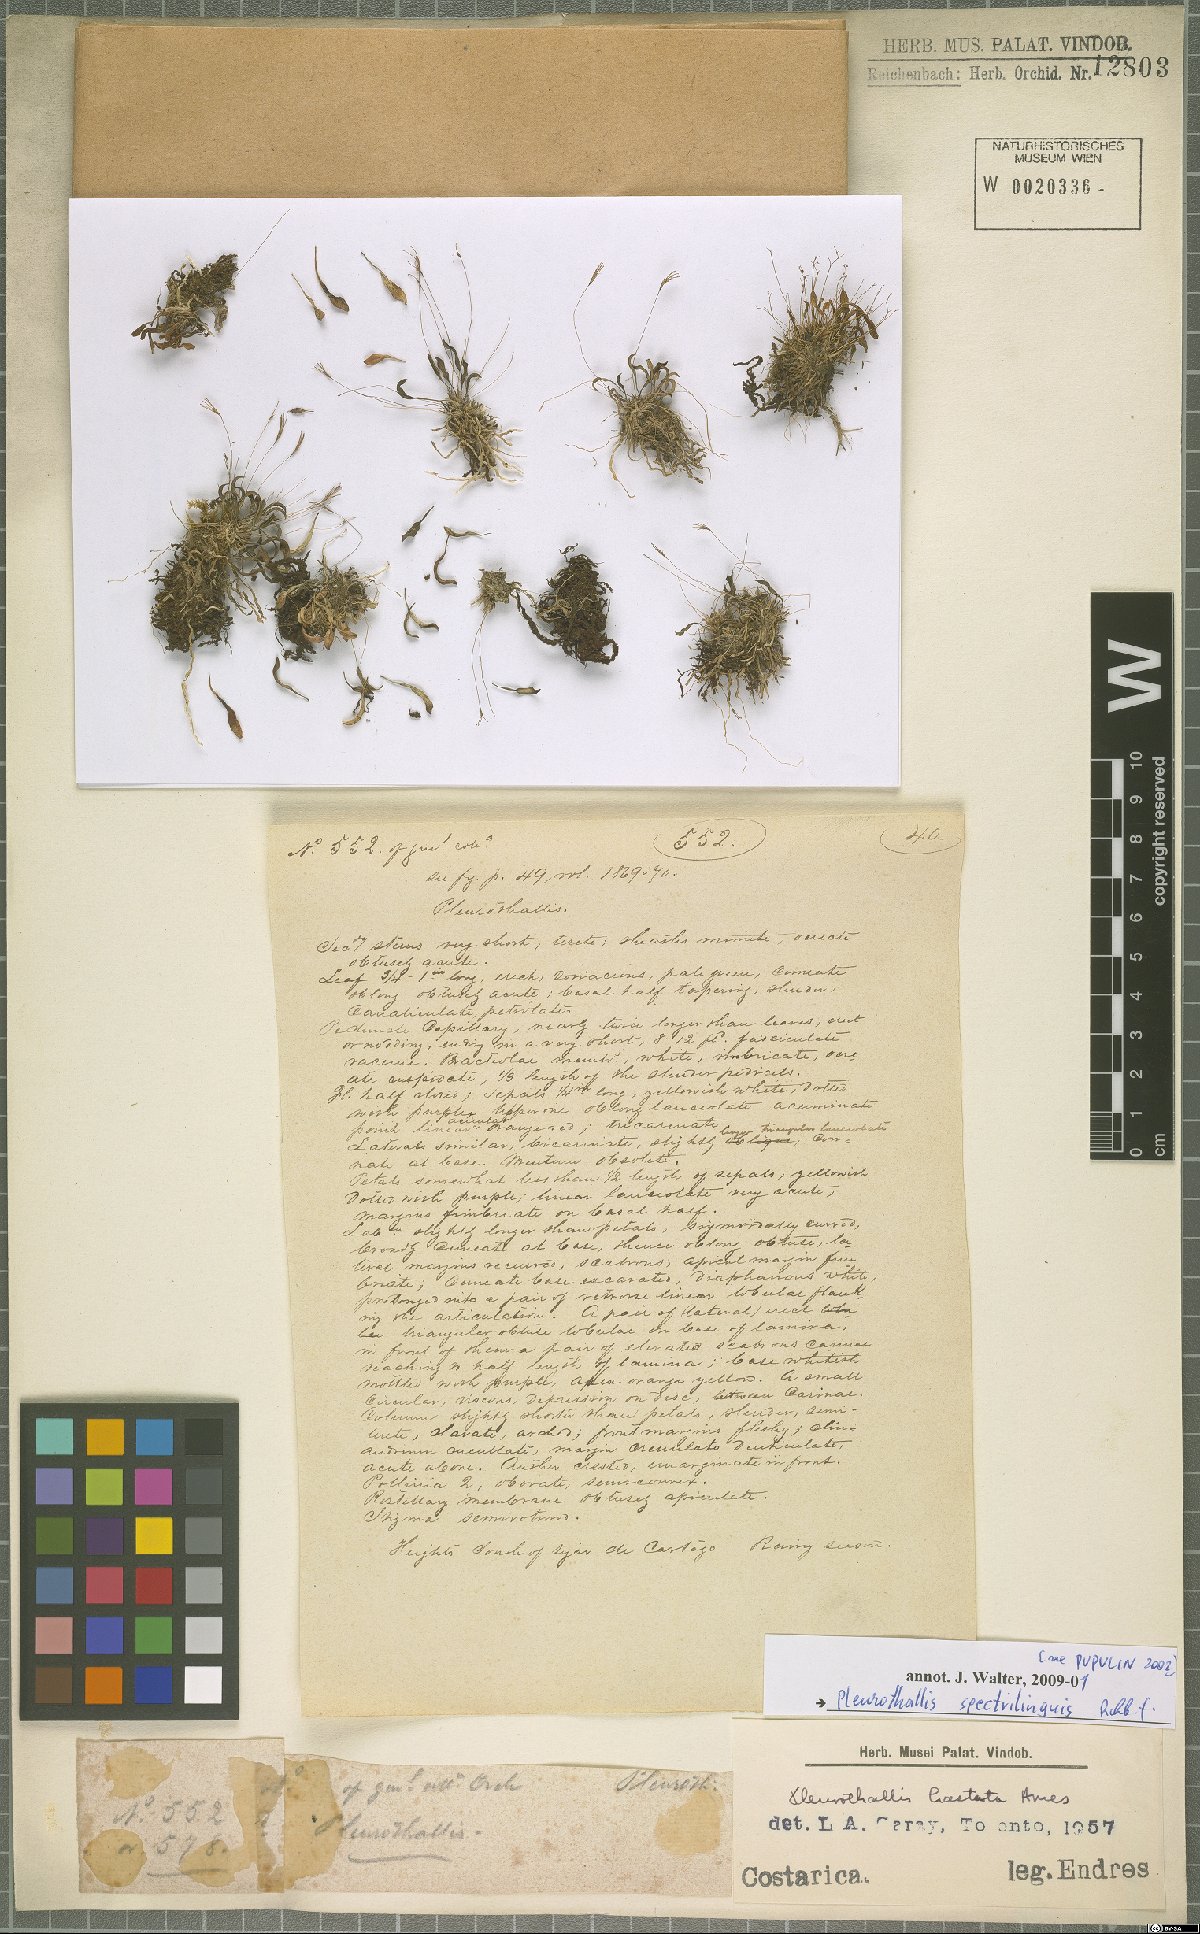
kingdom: Plantae
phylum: Tracheophyta
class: Liliopsida
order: Asparagales
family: Orchidaceae
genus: Muscarella
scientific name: Muscarella marginata
